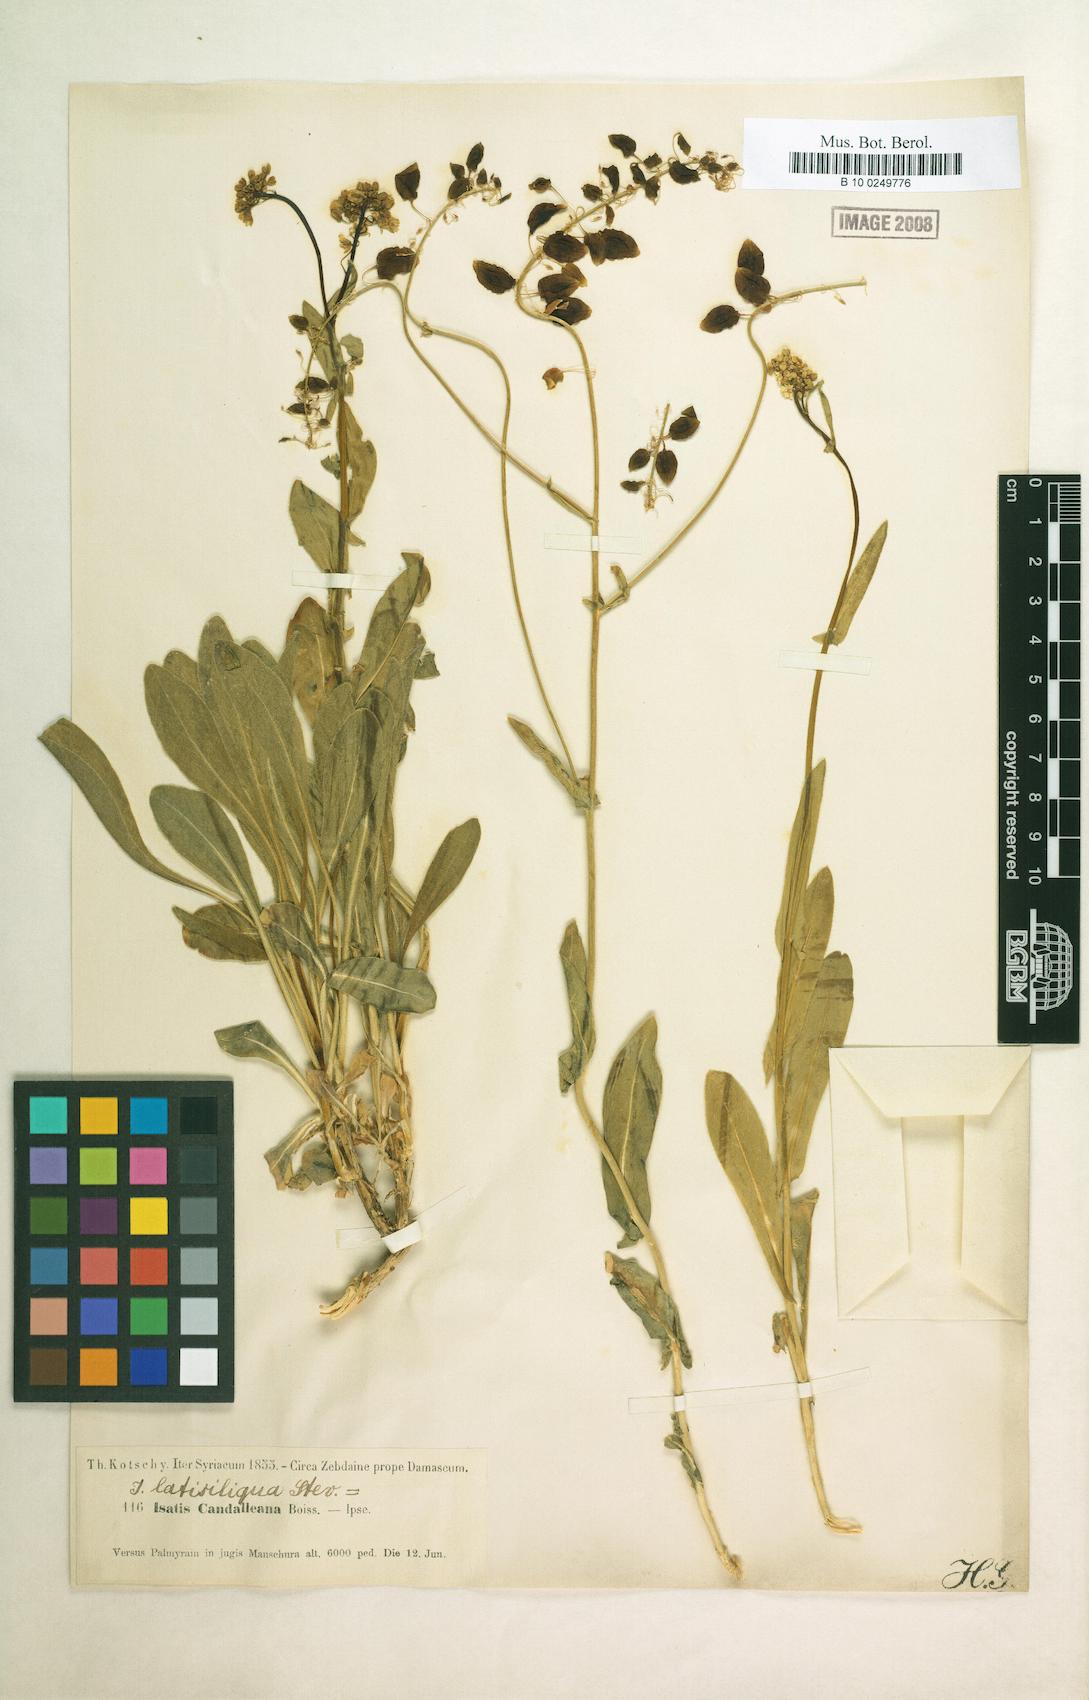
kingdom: Plantae
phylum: Tracheophyta
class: Magnoliopsida
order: Brassicales
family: Brassicaceae
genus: Isatis
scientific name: Isatis latisiliqua
